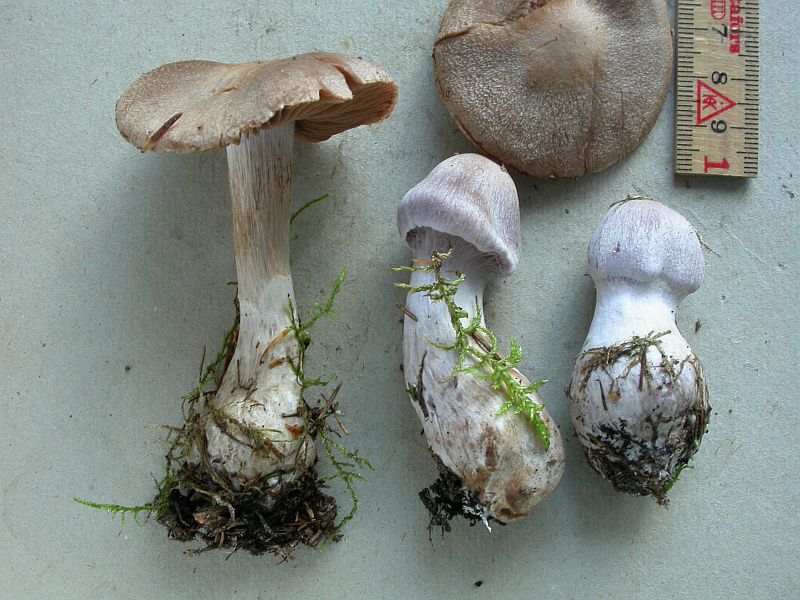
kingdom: Fungi
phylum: Basidiomycota
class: Agaricomycetes
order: Agaricales
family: Cortinariaceae
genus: Cortinarius
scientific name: Cortinarius malachius
